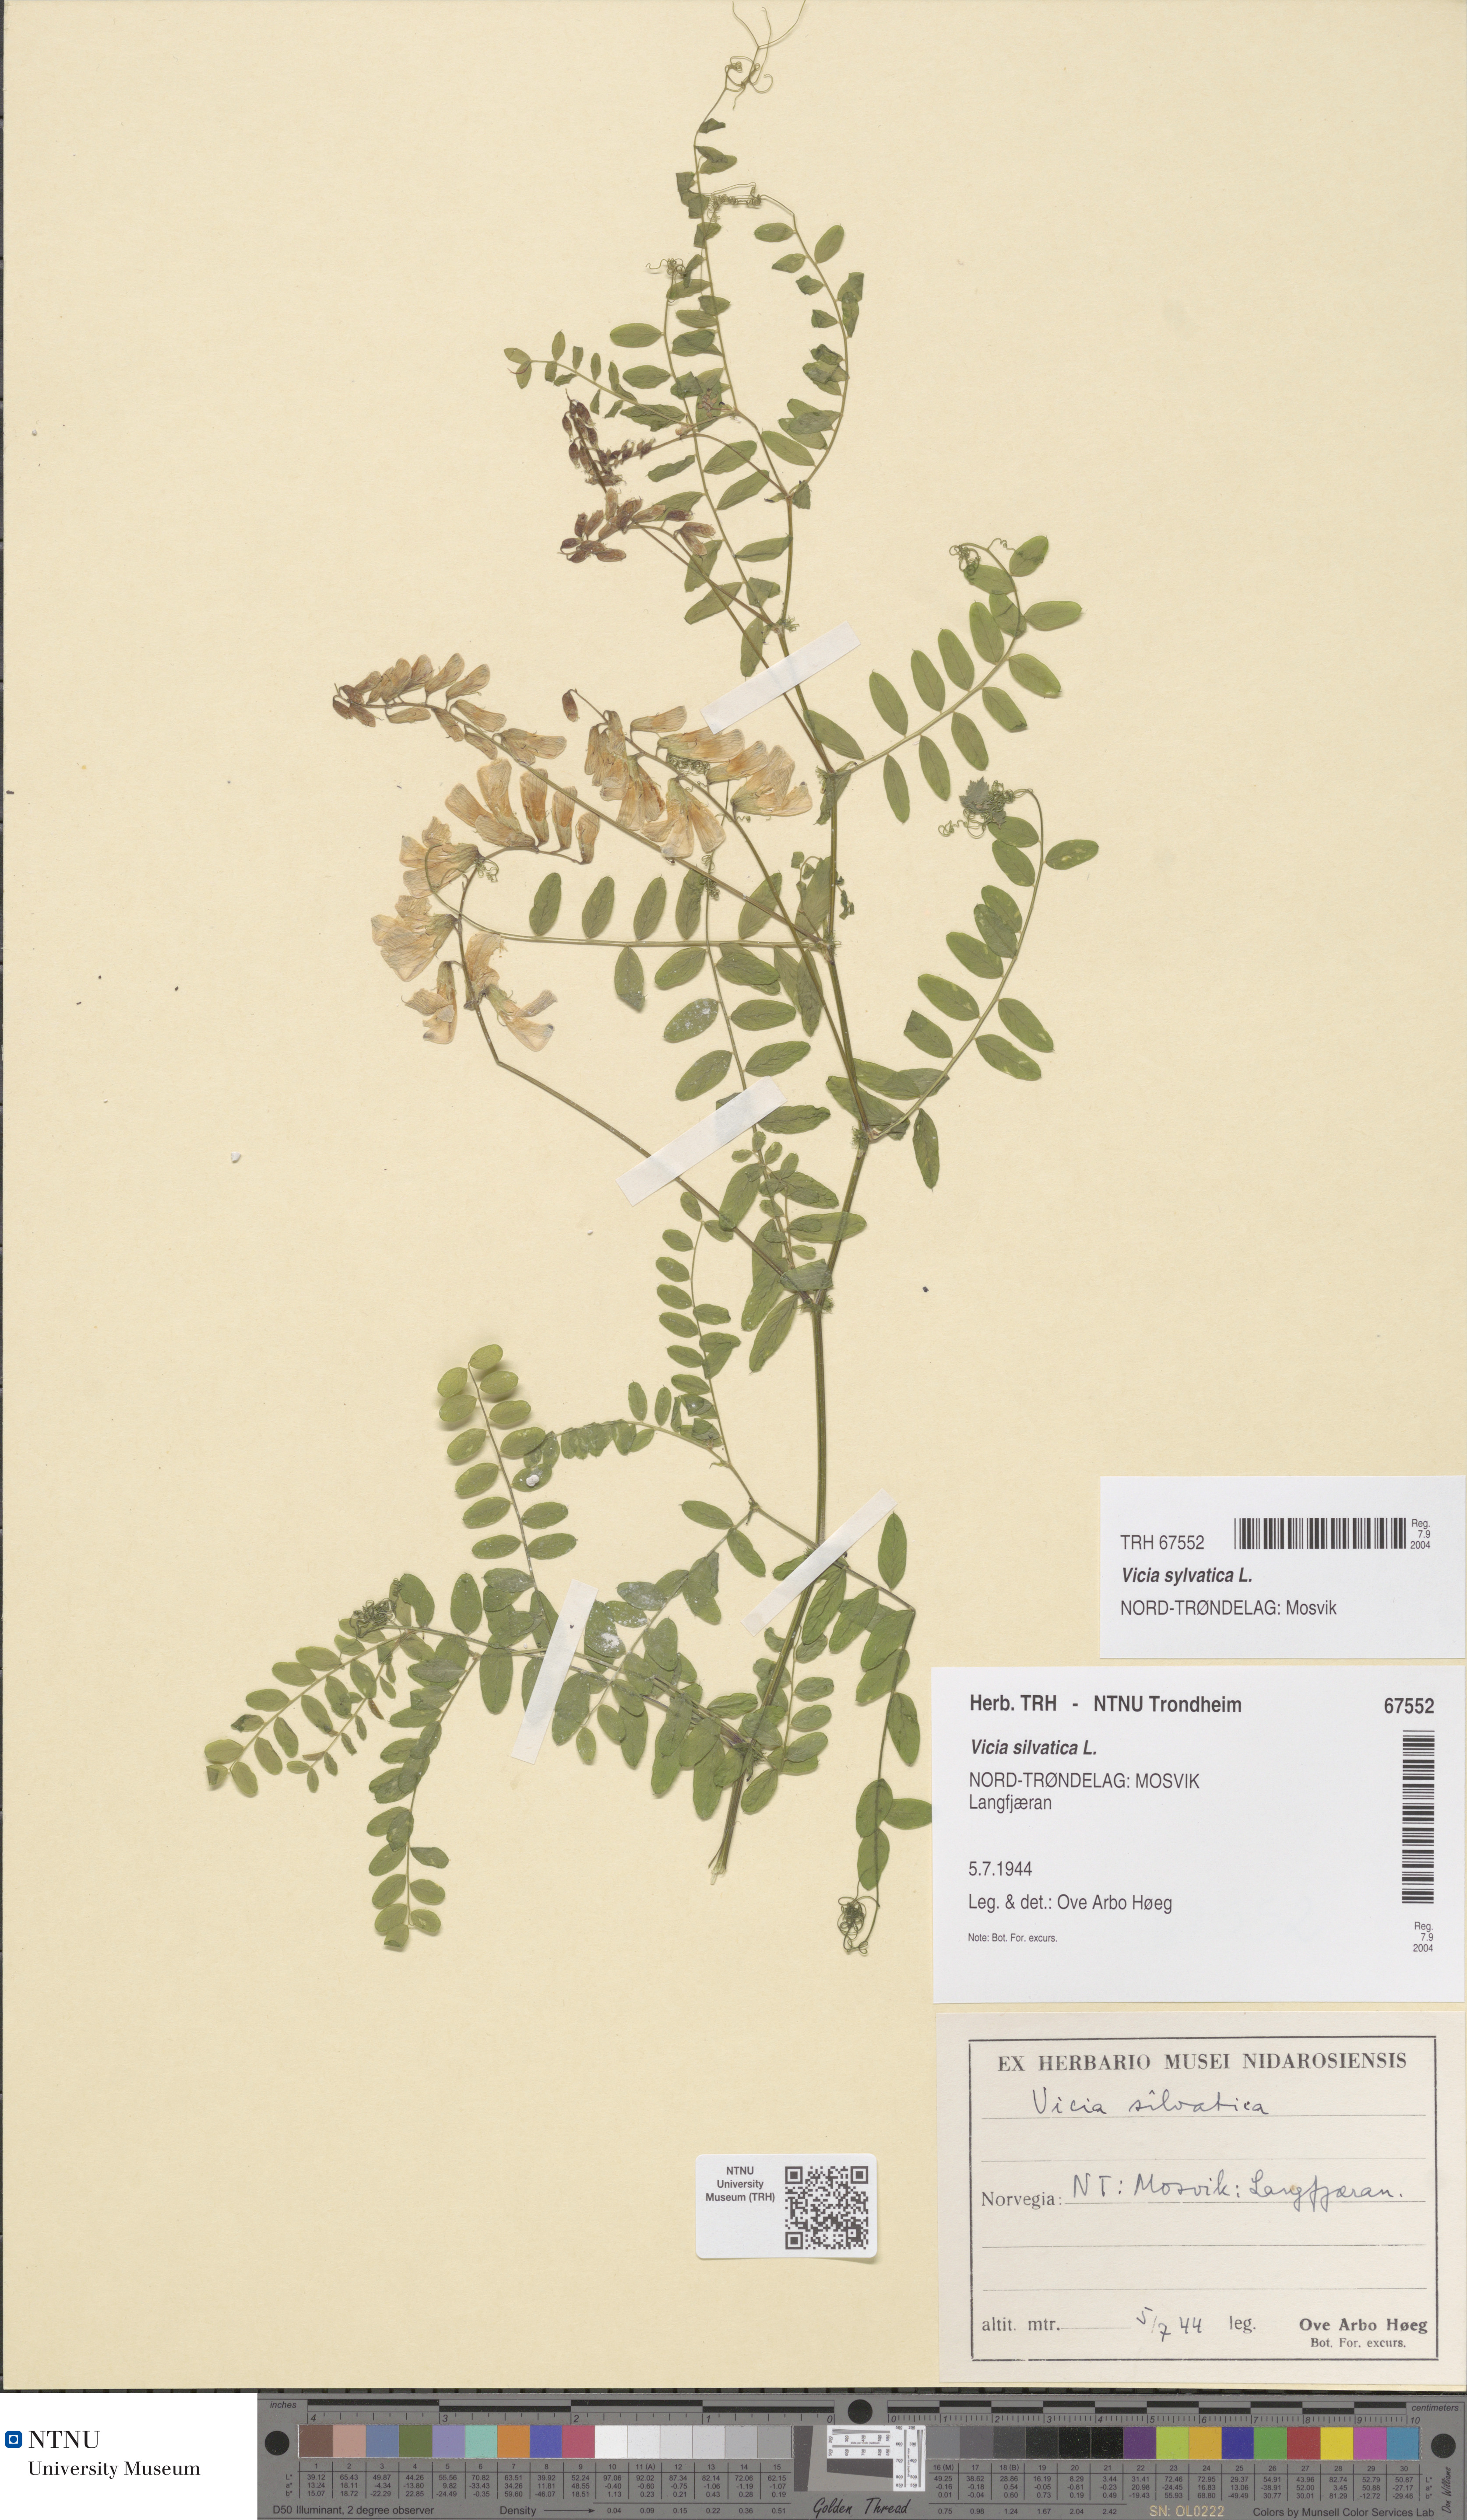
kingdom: Plantae
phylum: Tracheophyta
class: Magnoliopsida
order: Fabales
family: Fabaceae
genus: Vicia
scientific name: Vicia sylvatica
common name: Wood vetch
